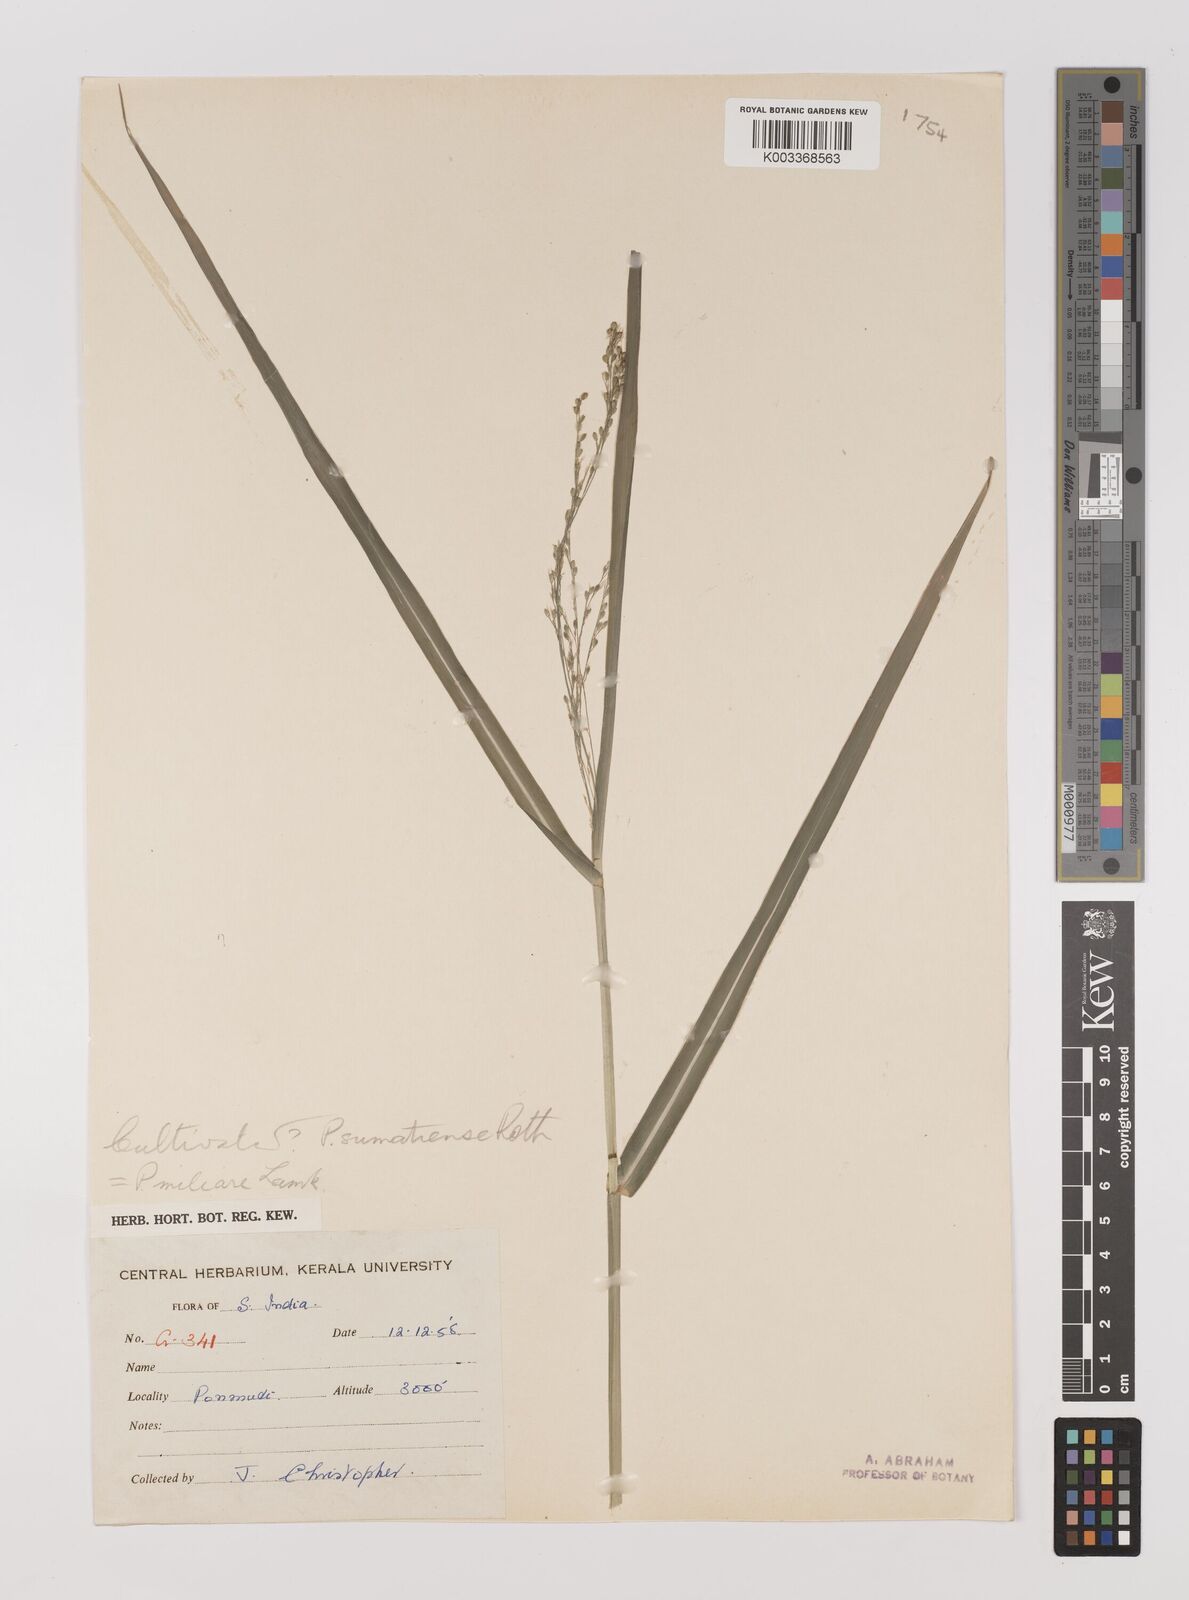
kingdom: Plantae
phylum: Tracheophyta
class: Liliopsida
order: Poales
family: Poaceae
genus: Panicum
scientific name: Panicum sumatrense
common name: Little millet
